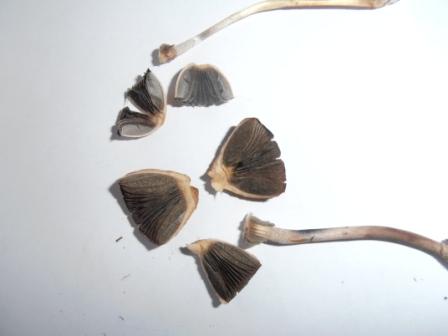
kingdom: Fungi
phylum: Basidiomycota
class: Agaricomycetes
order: Agaricales
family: Bolbitiaceae
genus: Panaeolus
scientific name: Panaeolus papilionaceus
